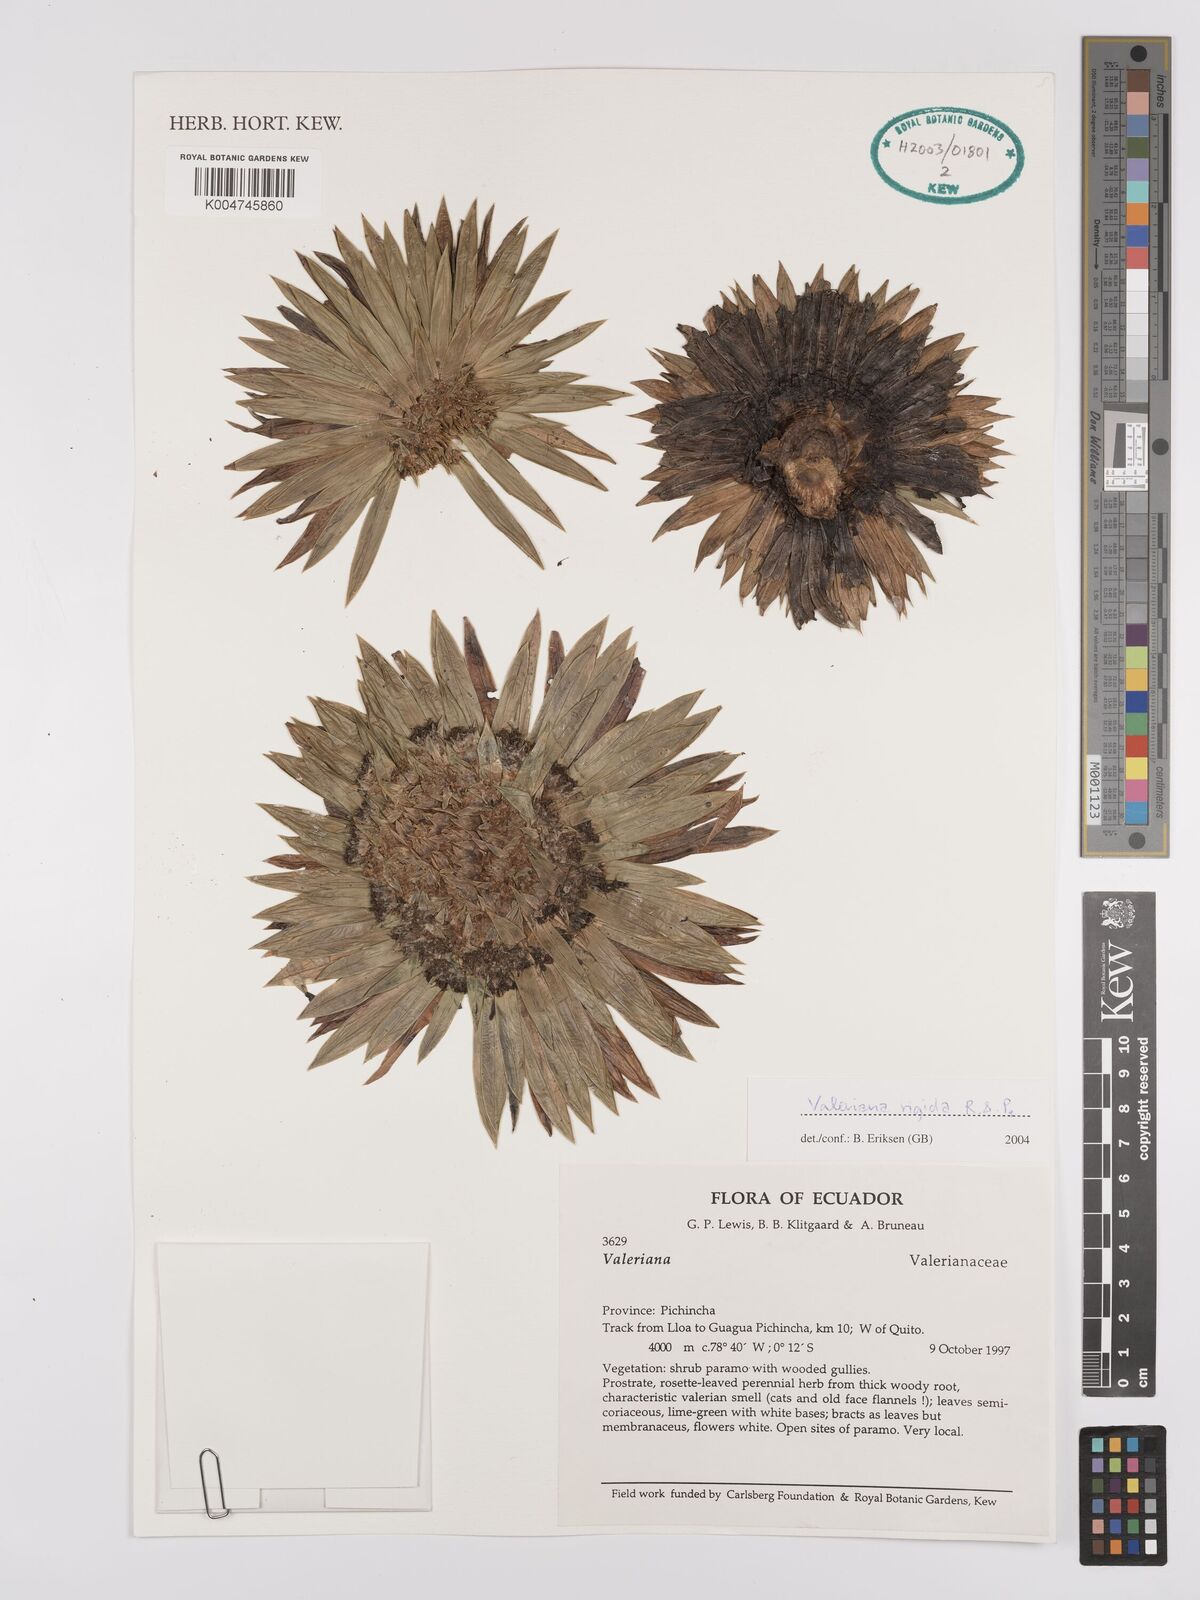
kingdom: Plantae
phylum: Tracheophyta
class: Magnoliopsida
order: Dipsacales
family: Caprifoliaceae
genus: Valeriana
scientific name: Valeriana rigida
